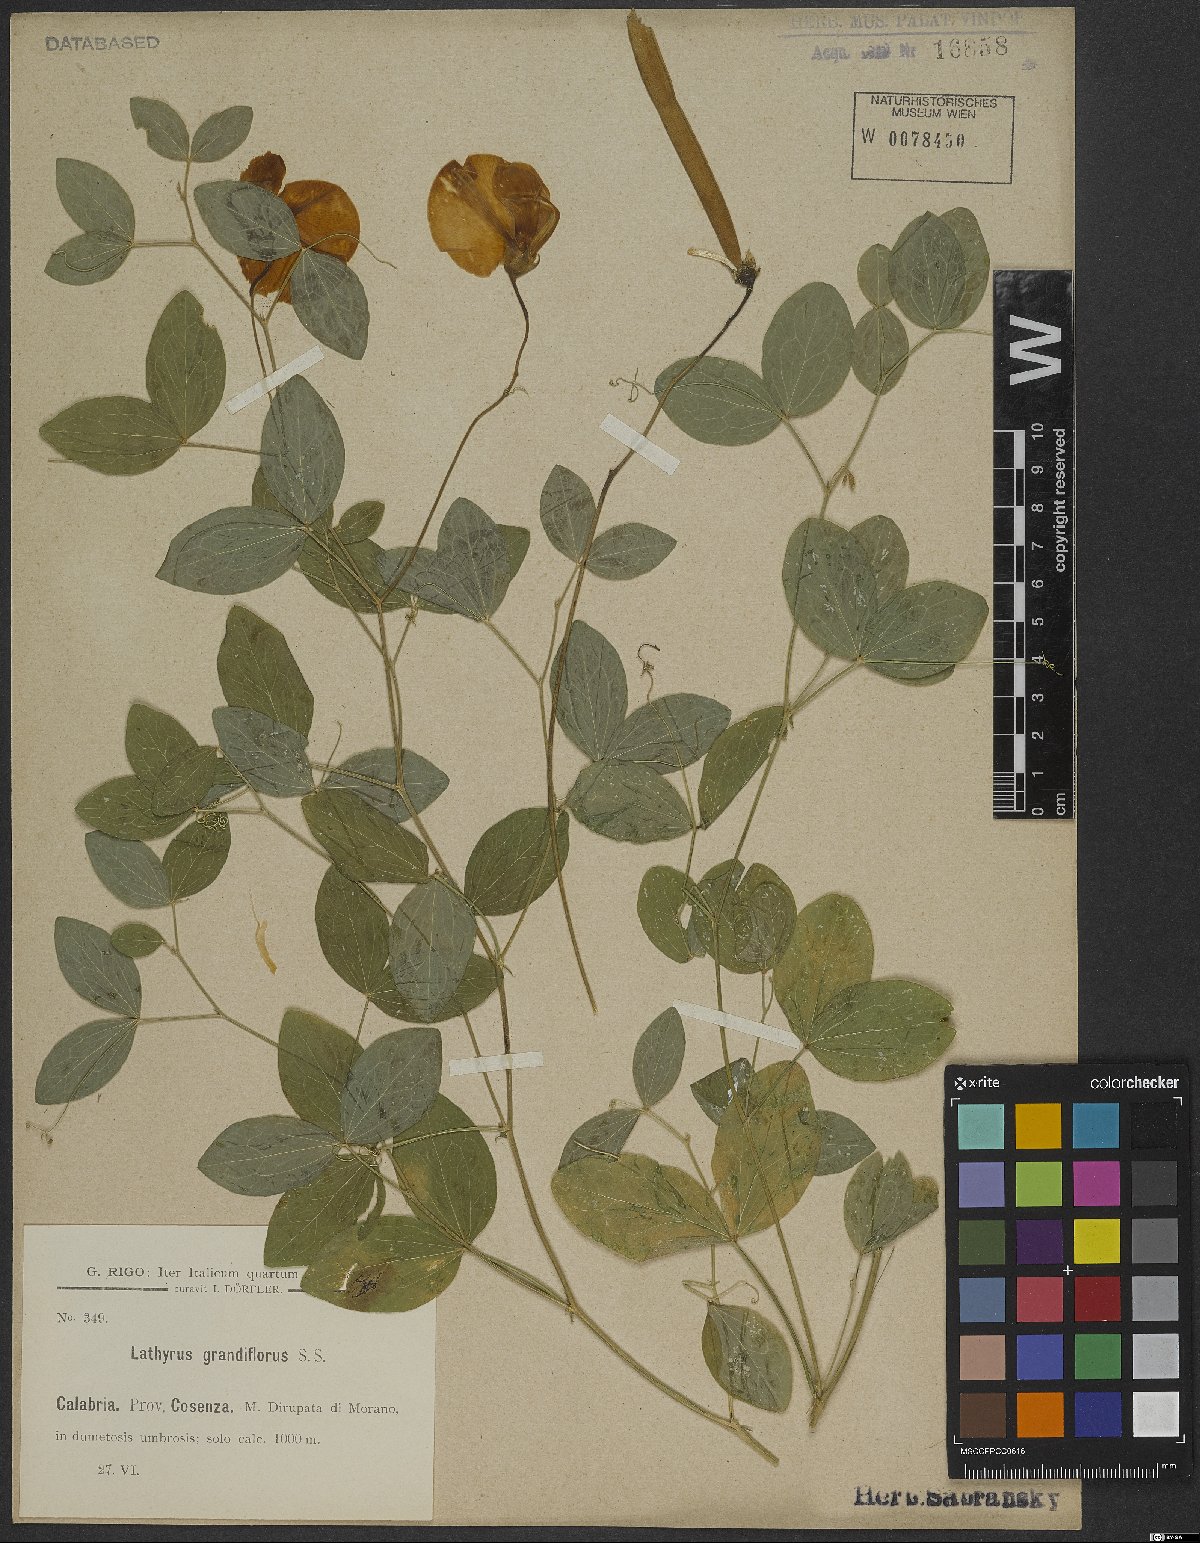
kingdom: Plantae
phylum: Tracheophyta
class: Magnoliopsida
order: Fabales
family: Fabaceae
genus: Lathyrus
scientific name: Lathyrus grandiflorus
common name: Two-flowered everlasting-pea
